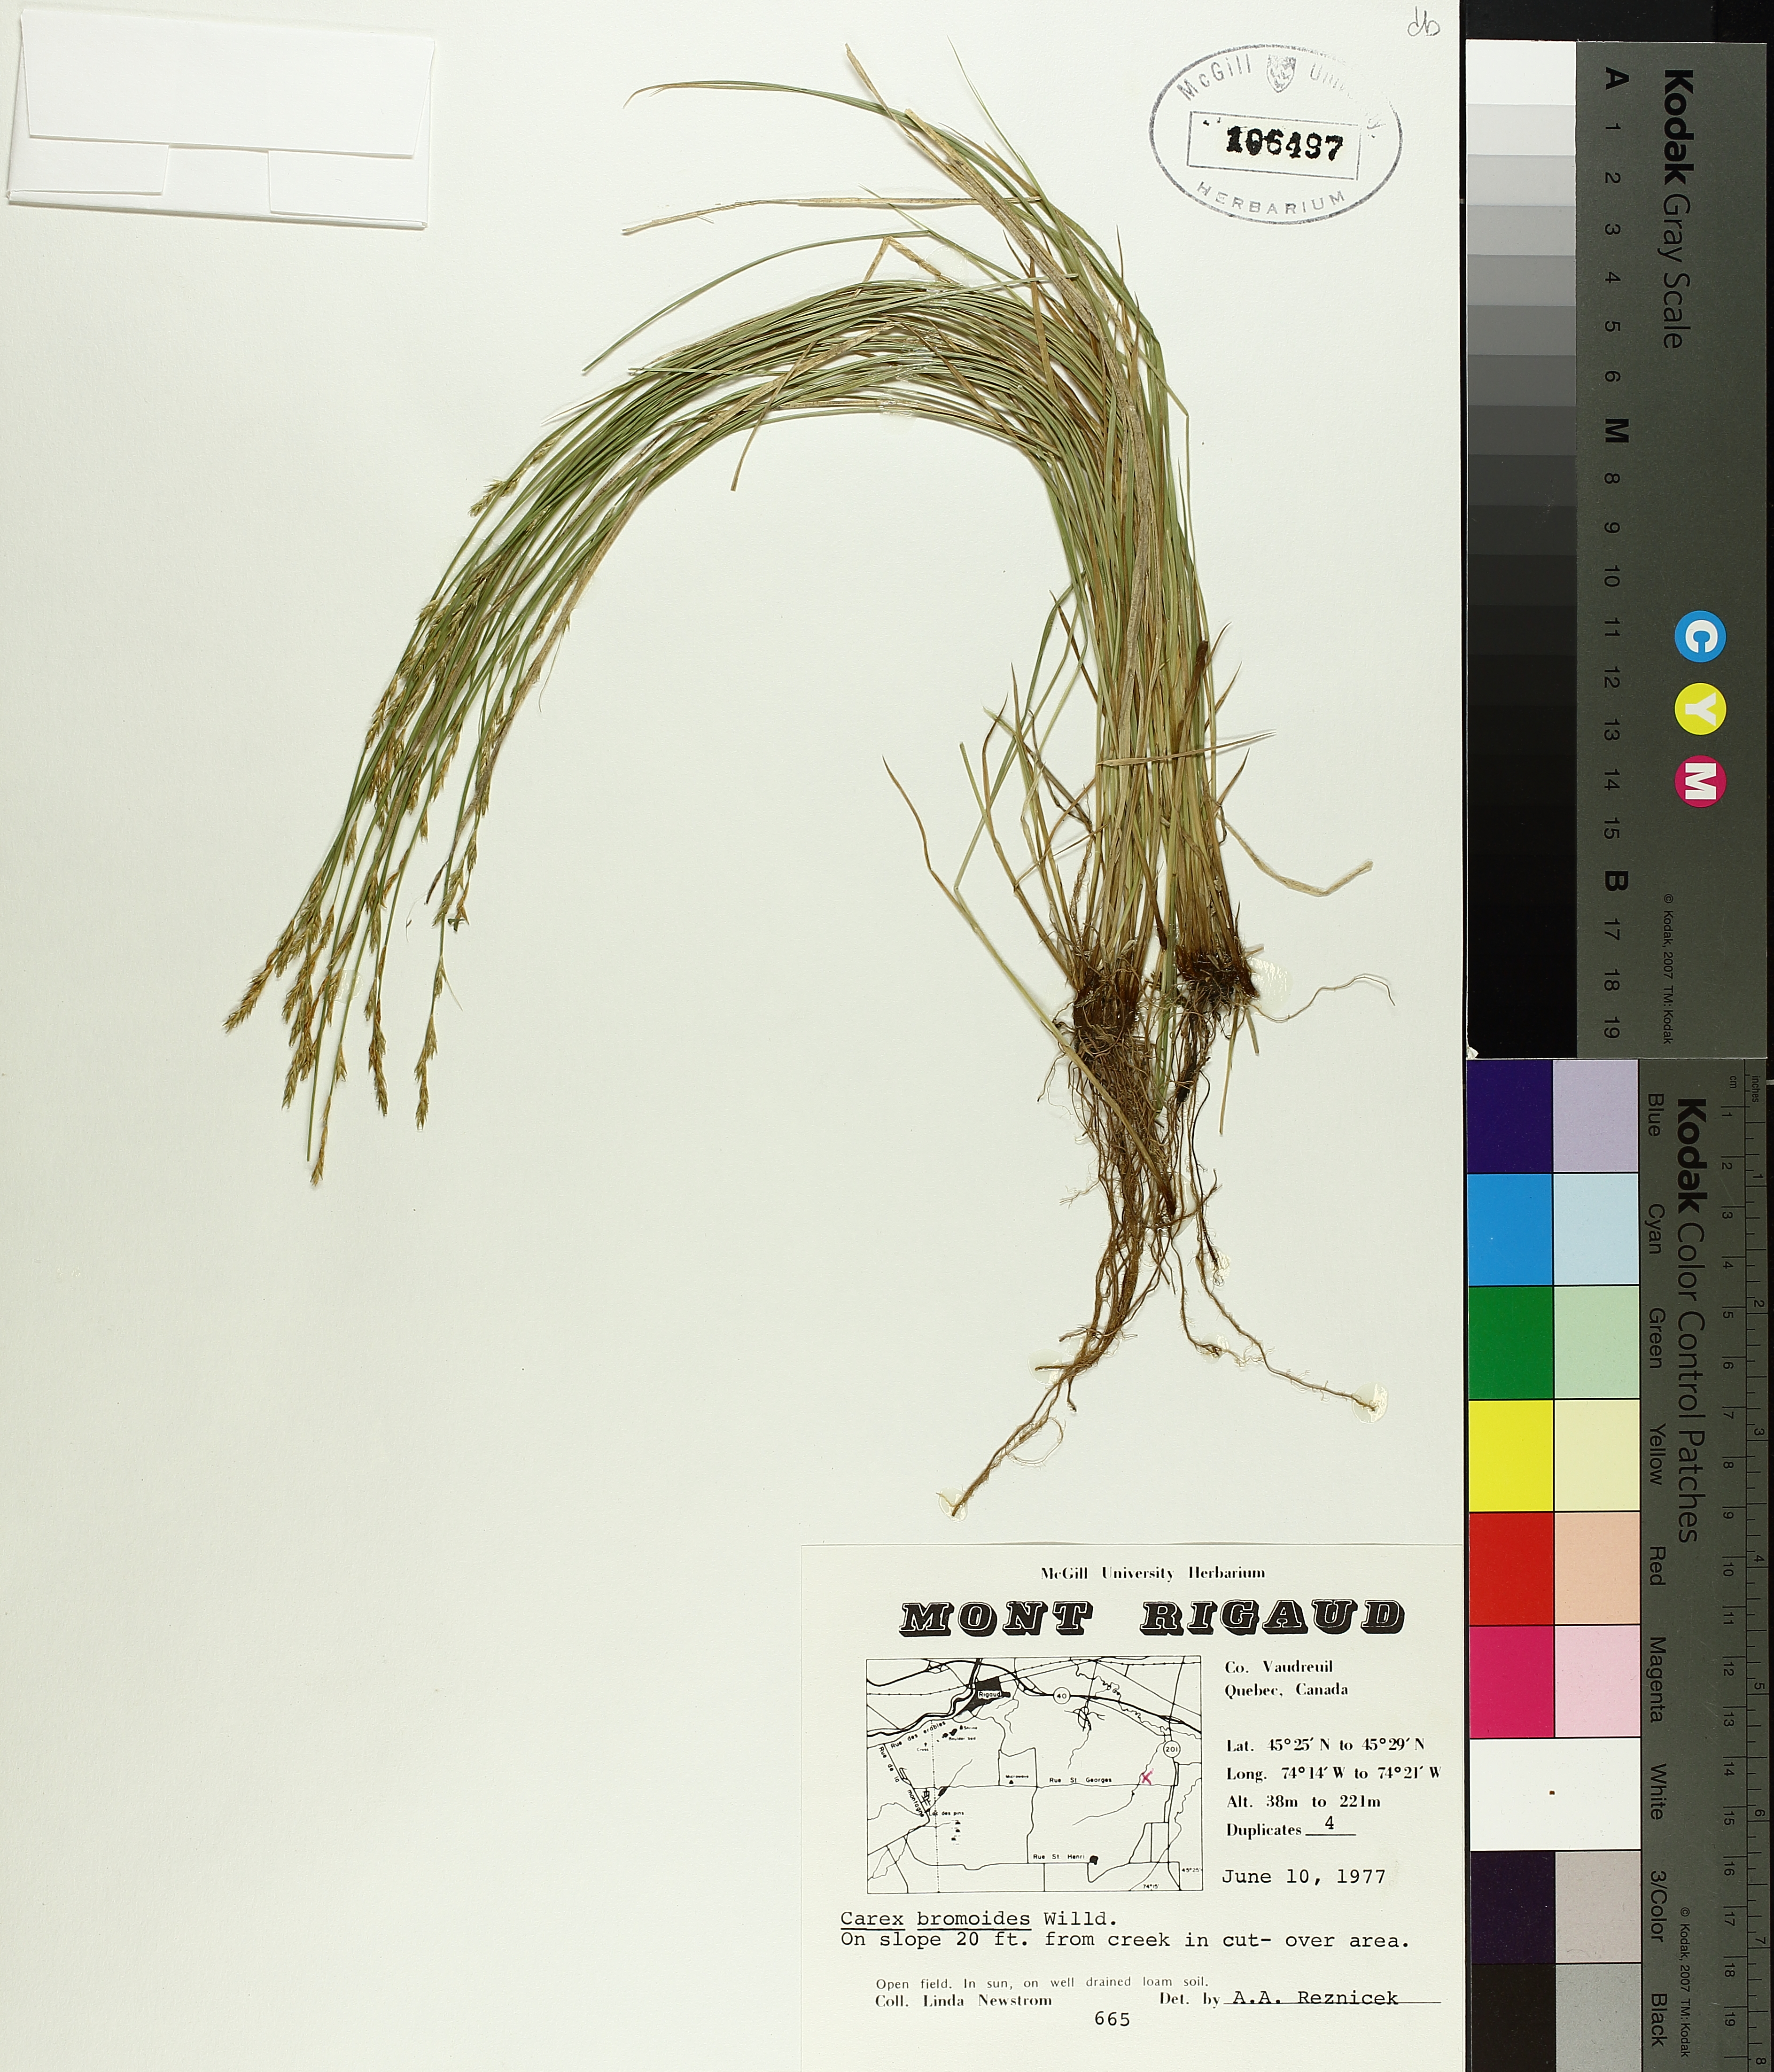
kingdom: Plantae
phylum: Tracheophyta
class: Liliopsida
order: Poales
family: Cyperaceae
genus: Carex
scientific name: Carex bromoides
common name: Brome hummock sedge
